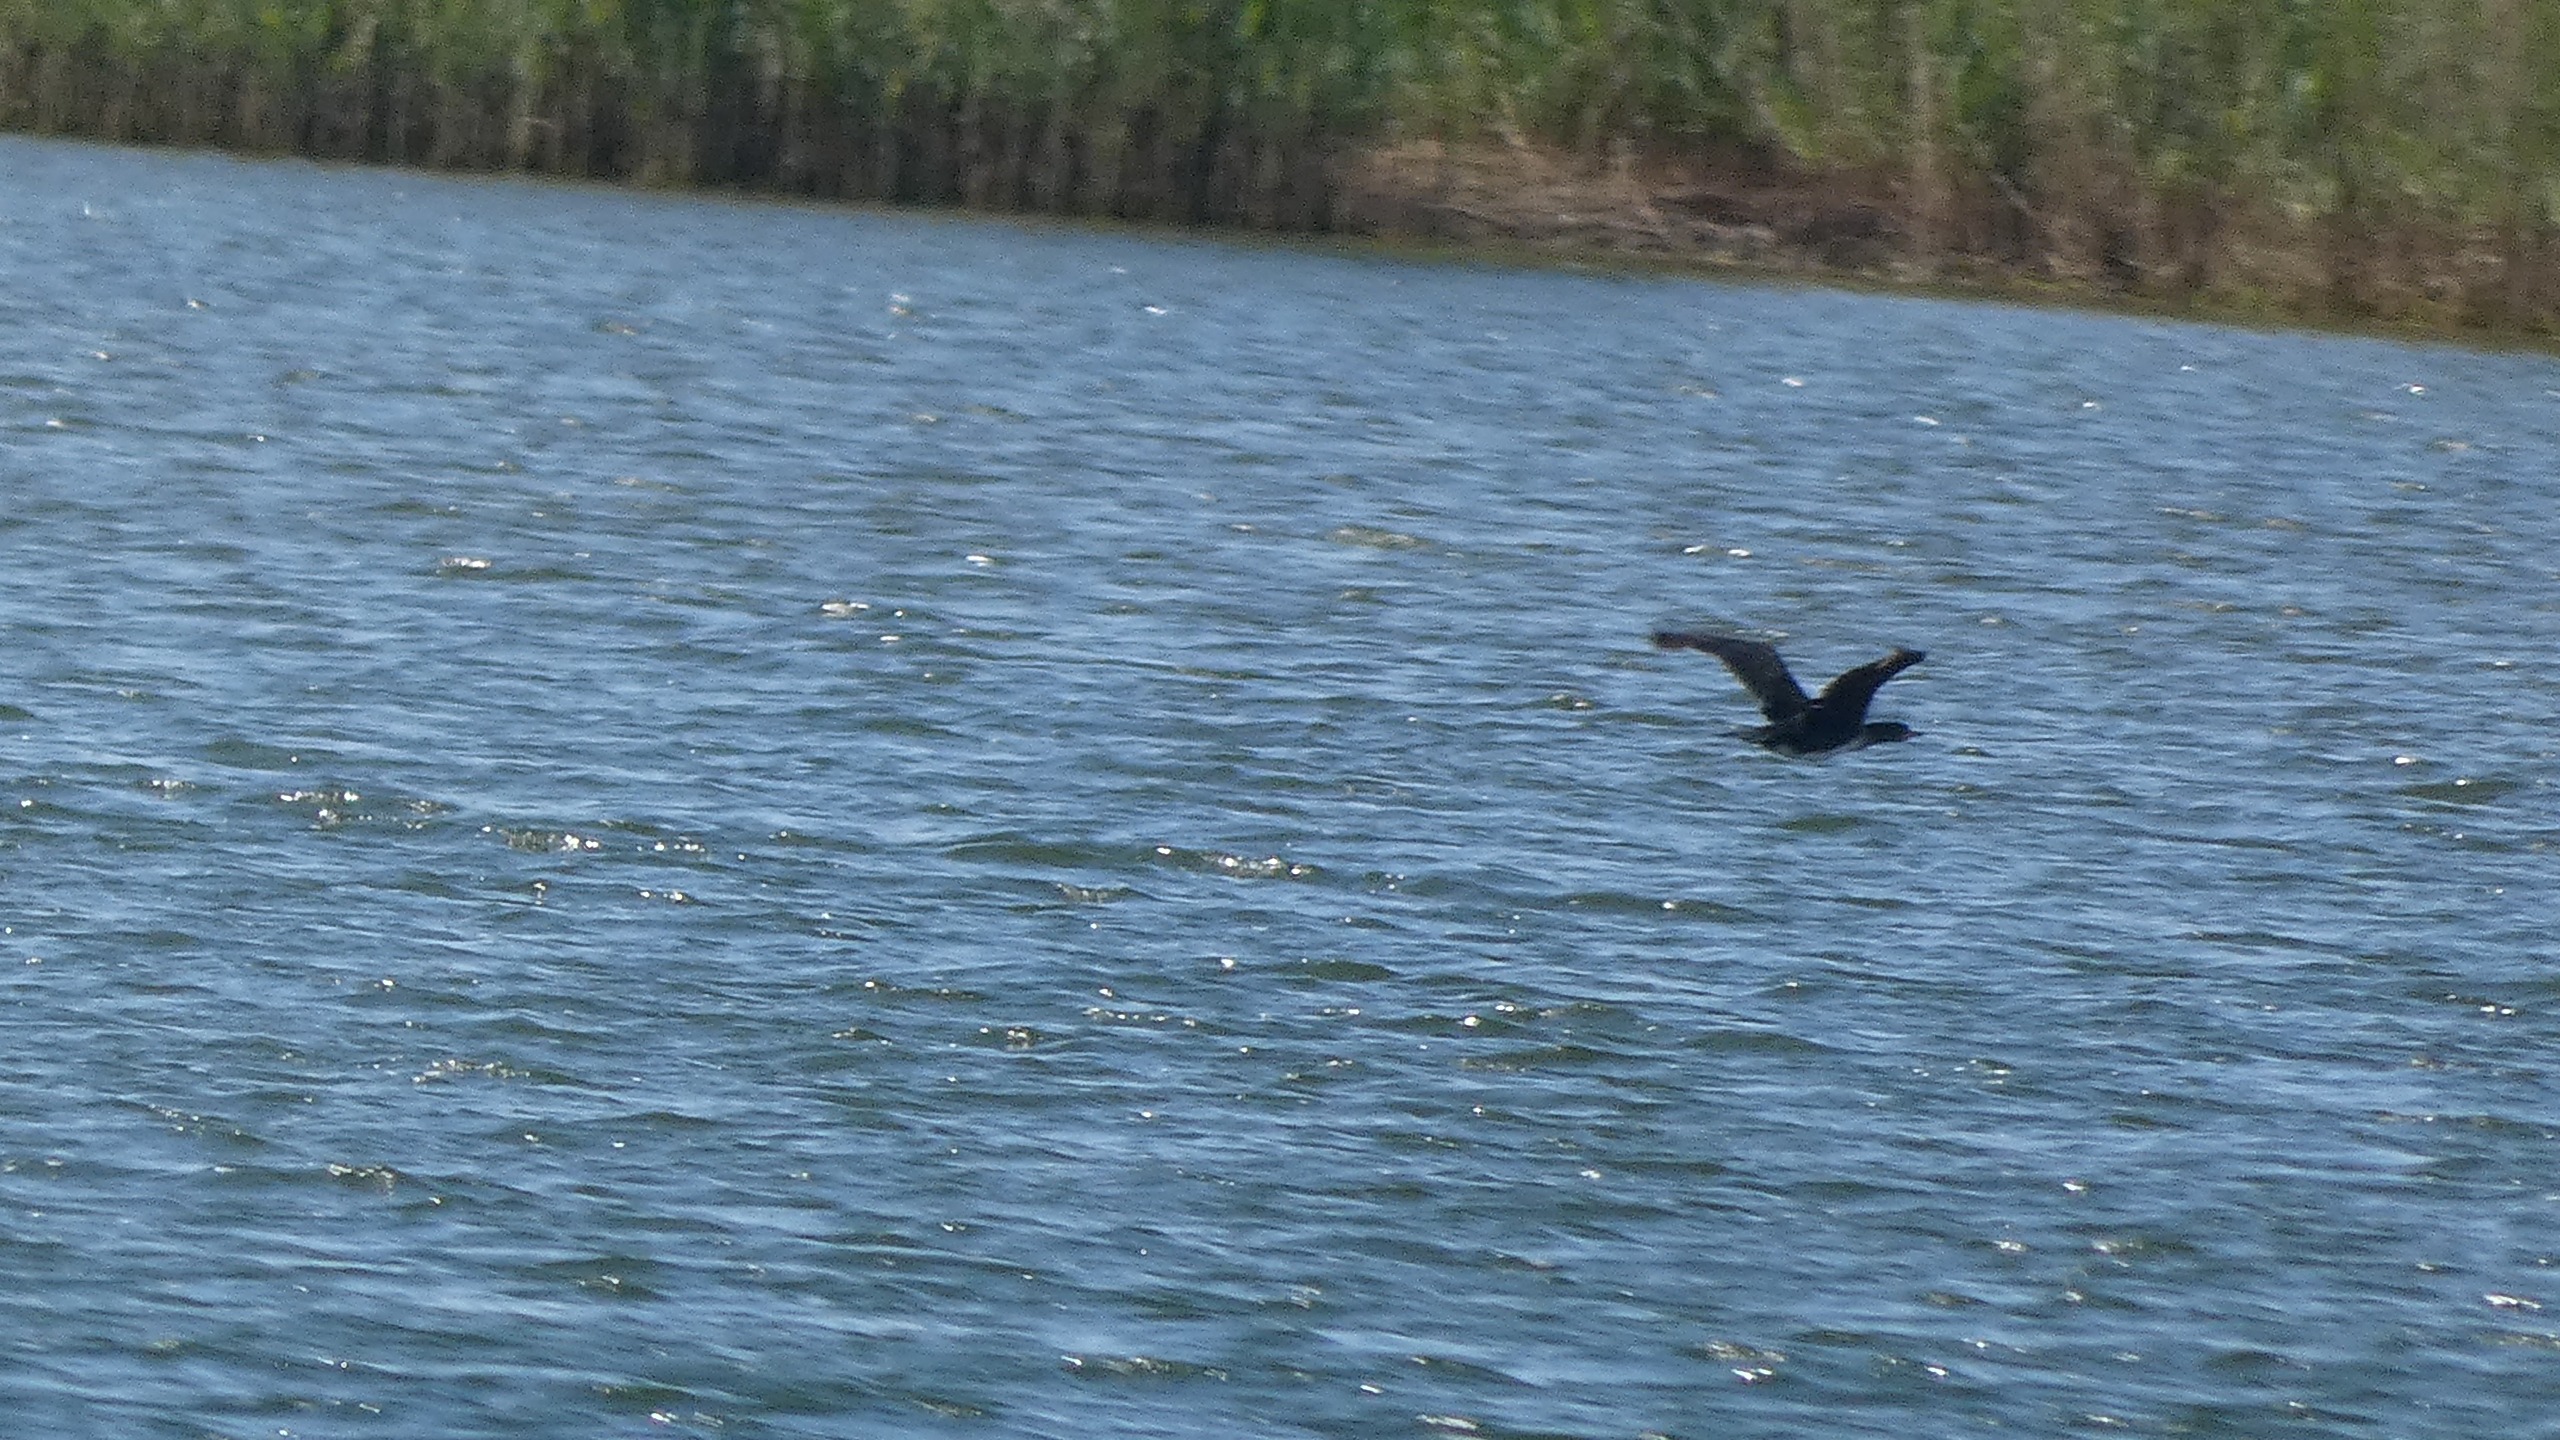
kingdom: Animalia
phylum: Chordata
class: Aves
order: Suliformes
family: Phalacrocoracidae
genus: Phalacrocorax
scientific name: Phalacrocorax carbo
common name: Skarv
